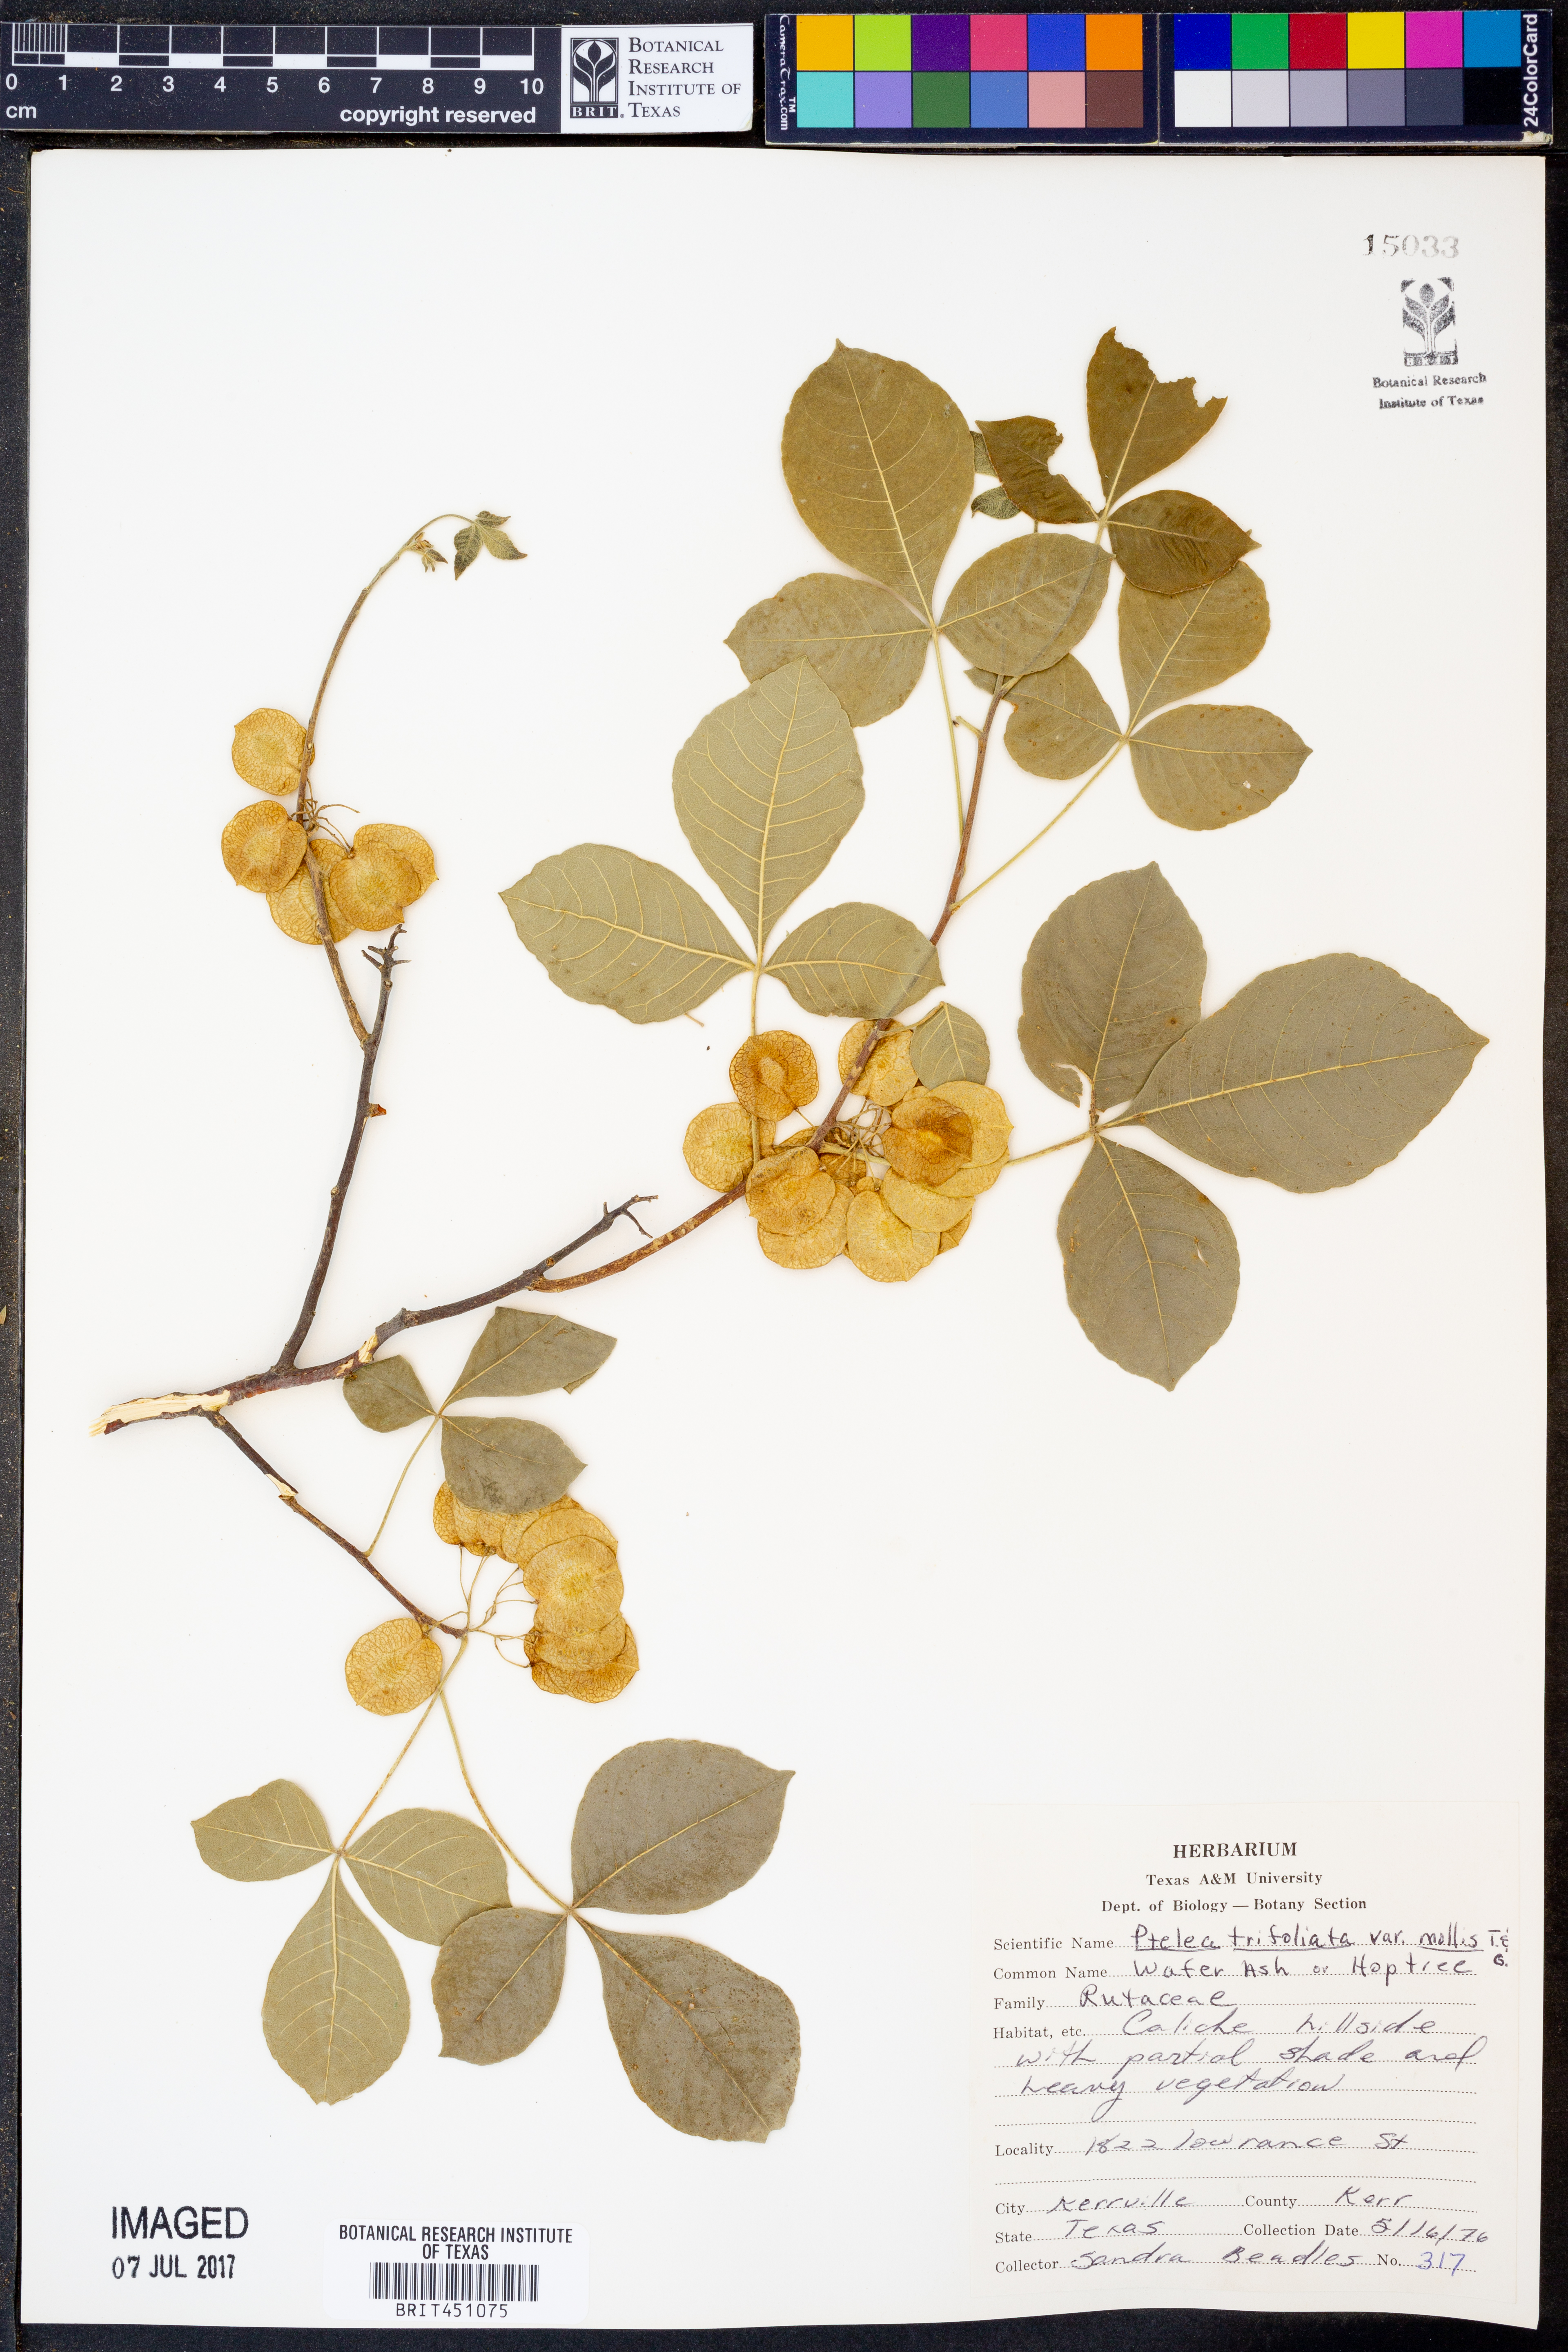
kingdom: Plantae
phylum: Tracheophyta
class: Magnoliopsida
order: Sapindales
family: Rutaceae
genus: Ptelea
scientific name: Ptelea trifoliata
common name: Common hop-tree
